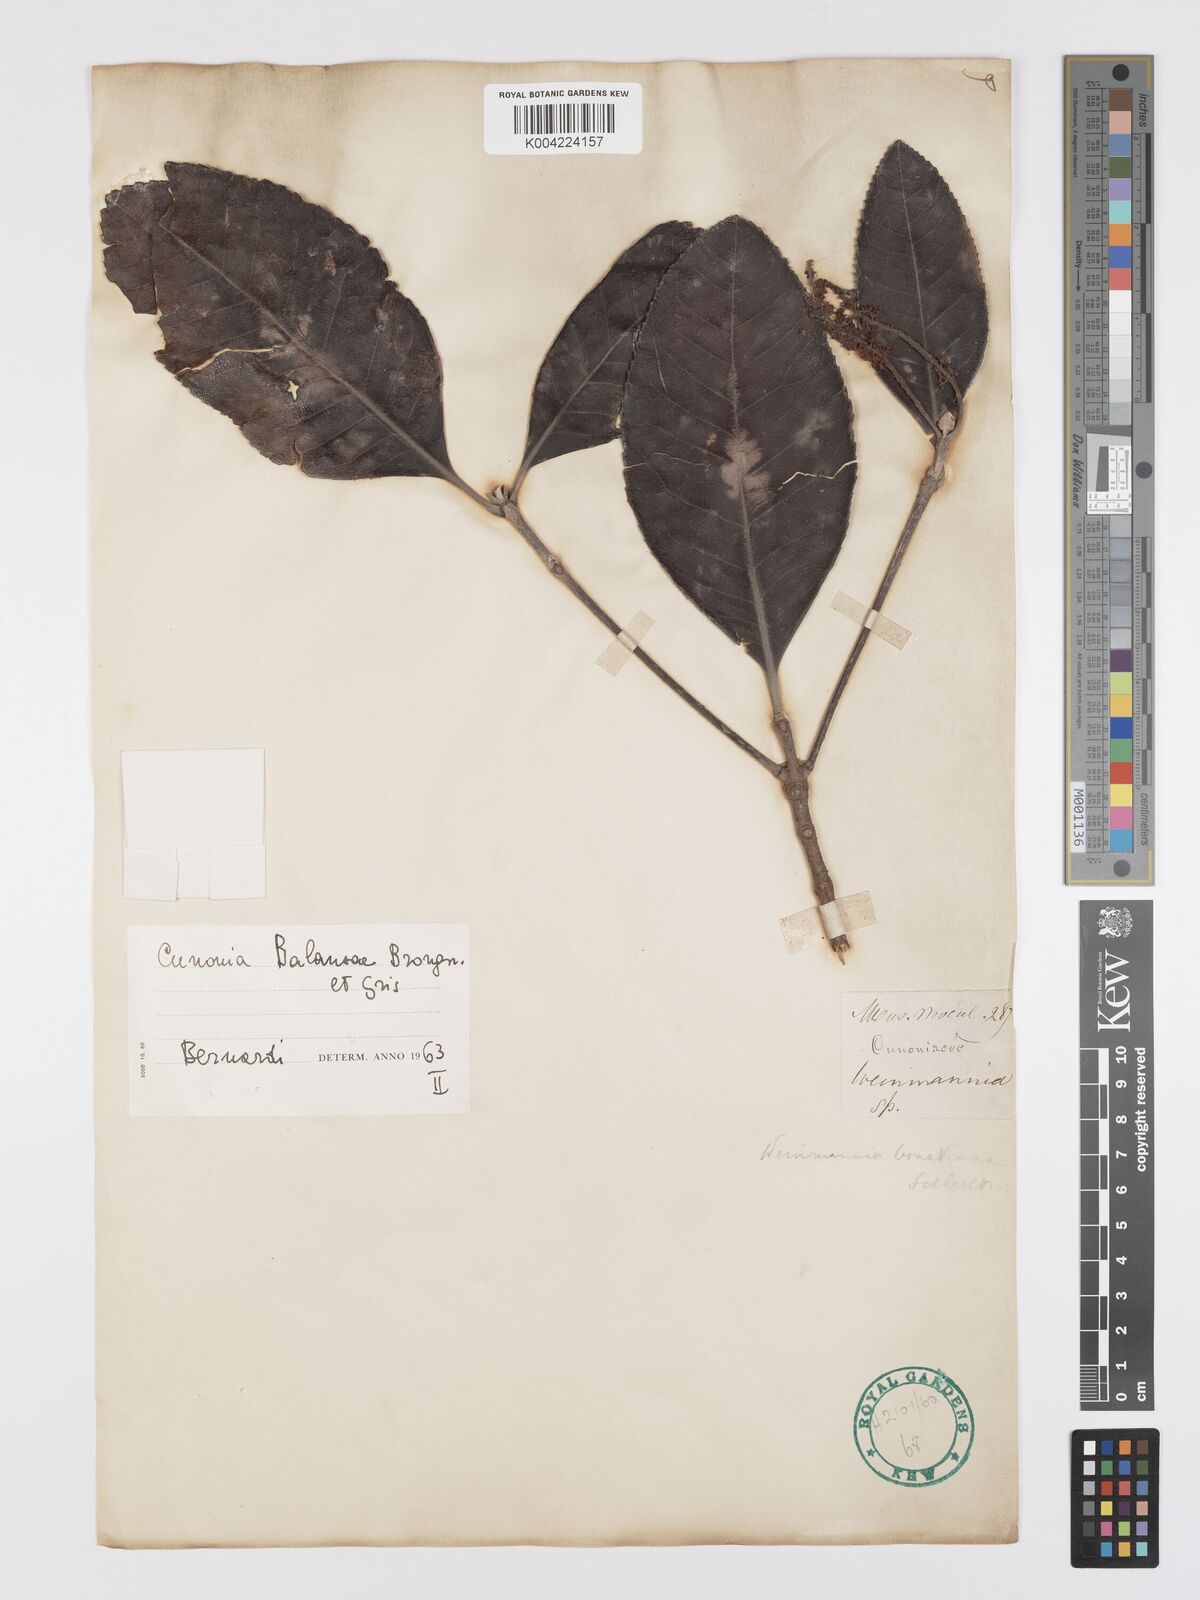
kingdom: Plantae
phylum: Tracheophyta
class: Magnoliopsida
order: Oxalidales
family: Cunoniaceae
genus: Cunonia
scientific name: Cunonia balansae
